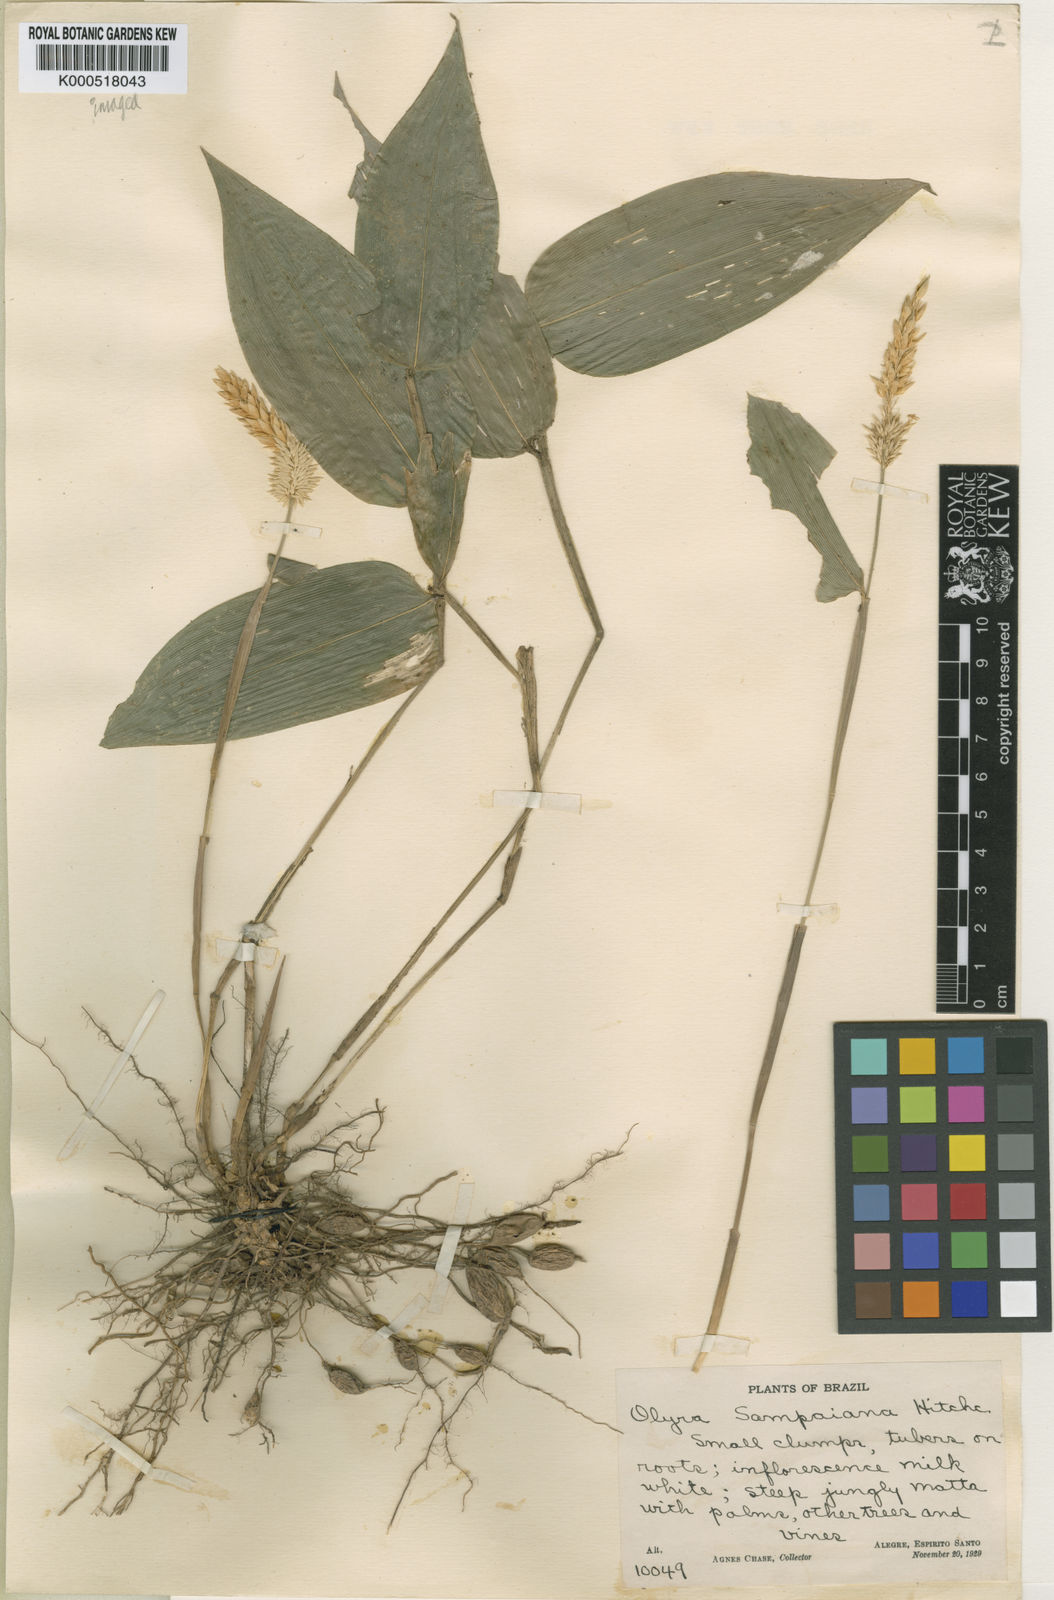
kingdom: Plantae
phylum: Tracheophyta
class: Liliopsida
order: Poales
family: Poaceae
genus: Brasilochloa
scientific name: Brasilochloa sampaiana
